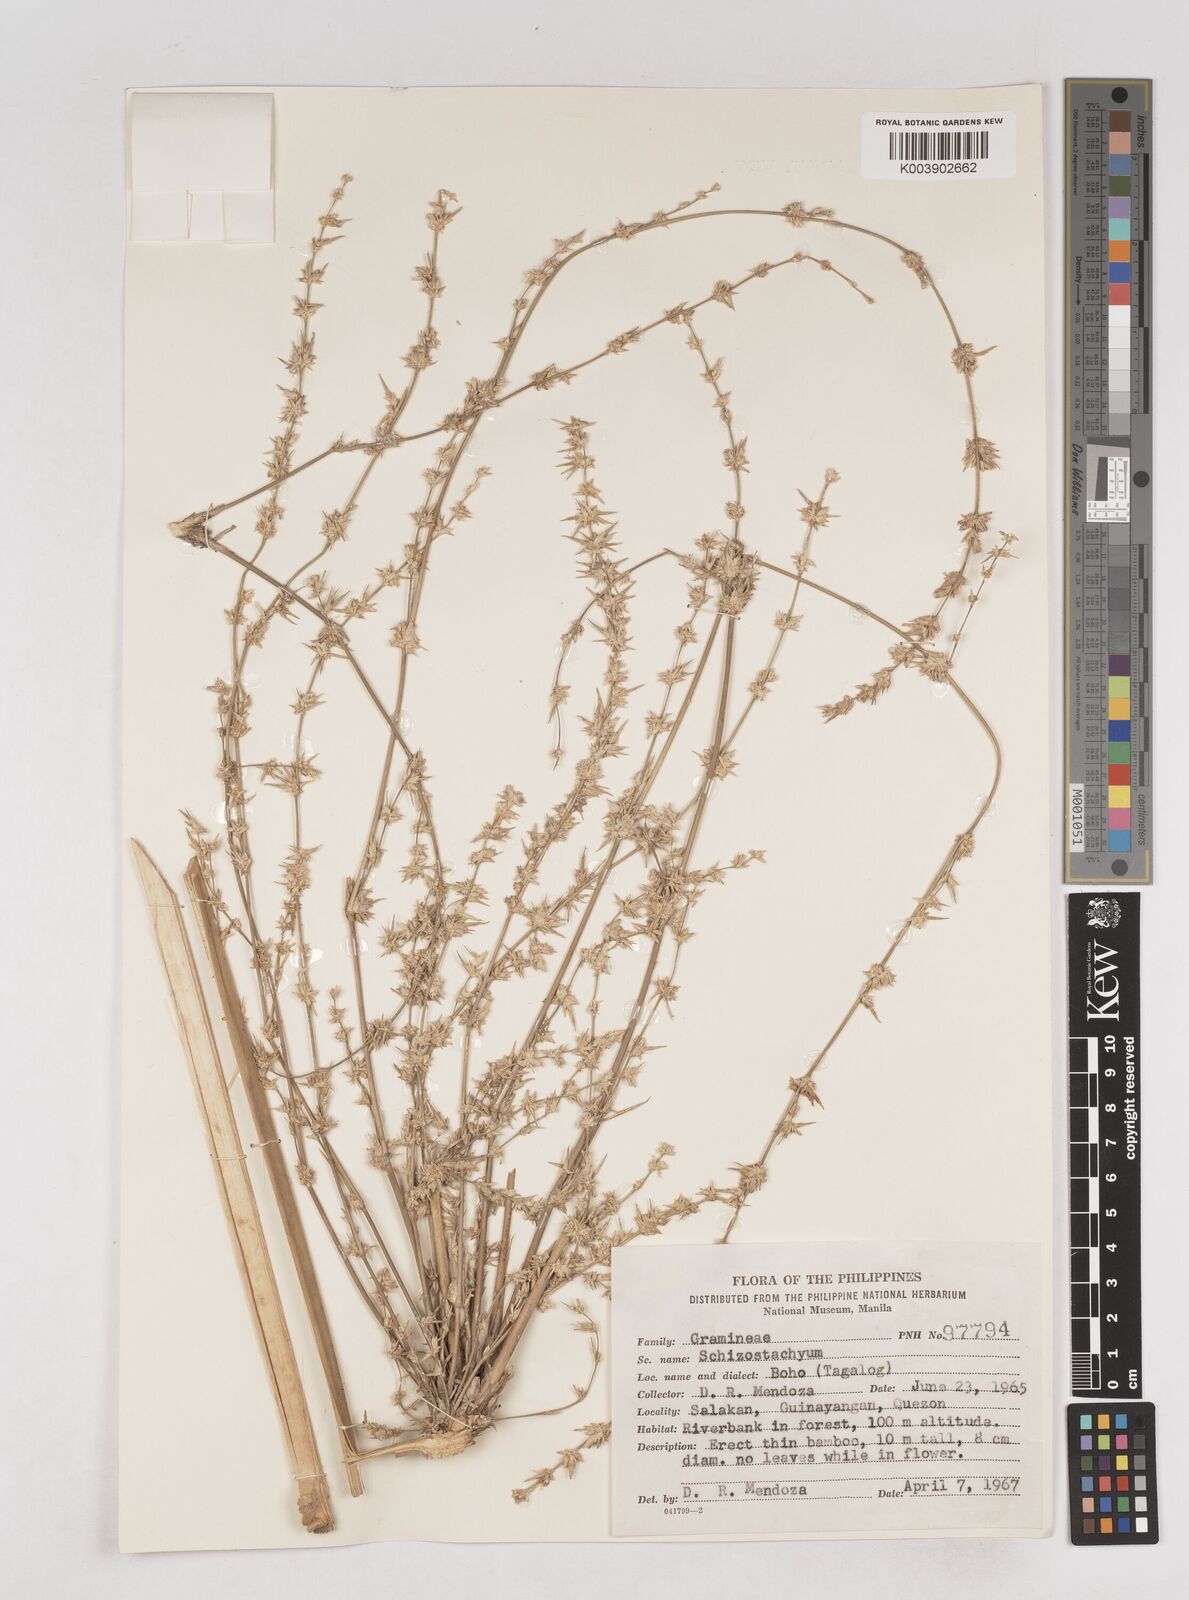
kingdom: Plantae
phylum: Tracheophyta
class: Liliopsida
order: Poales
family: Poaceae
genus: Schizostachyum
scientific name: Schizostachyum lumampao
